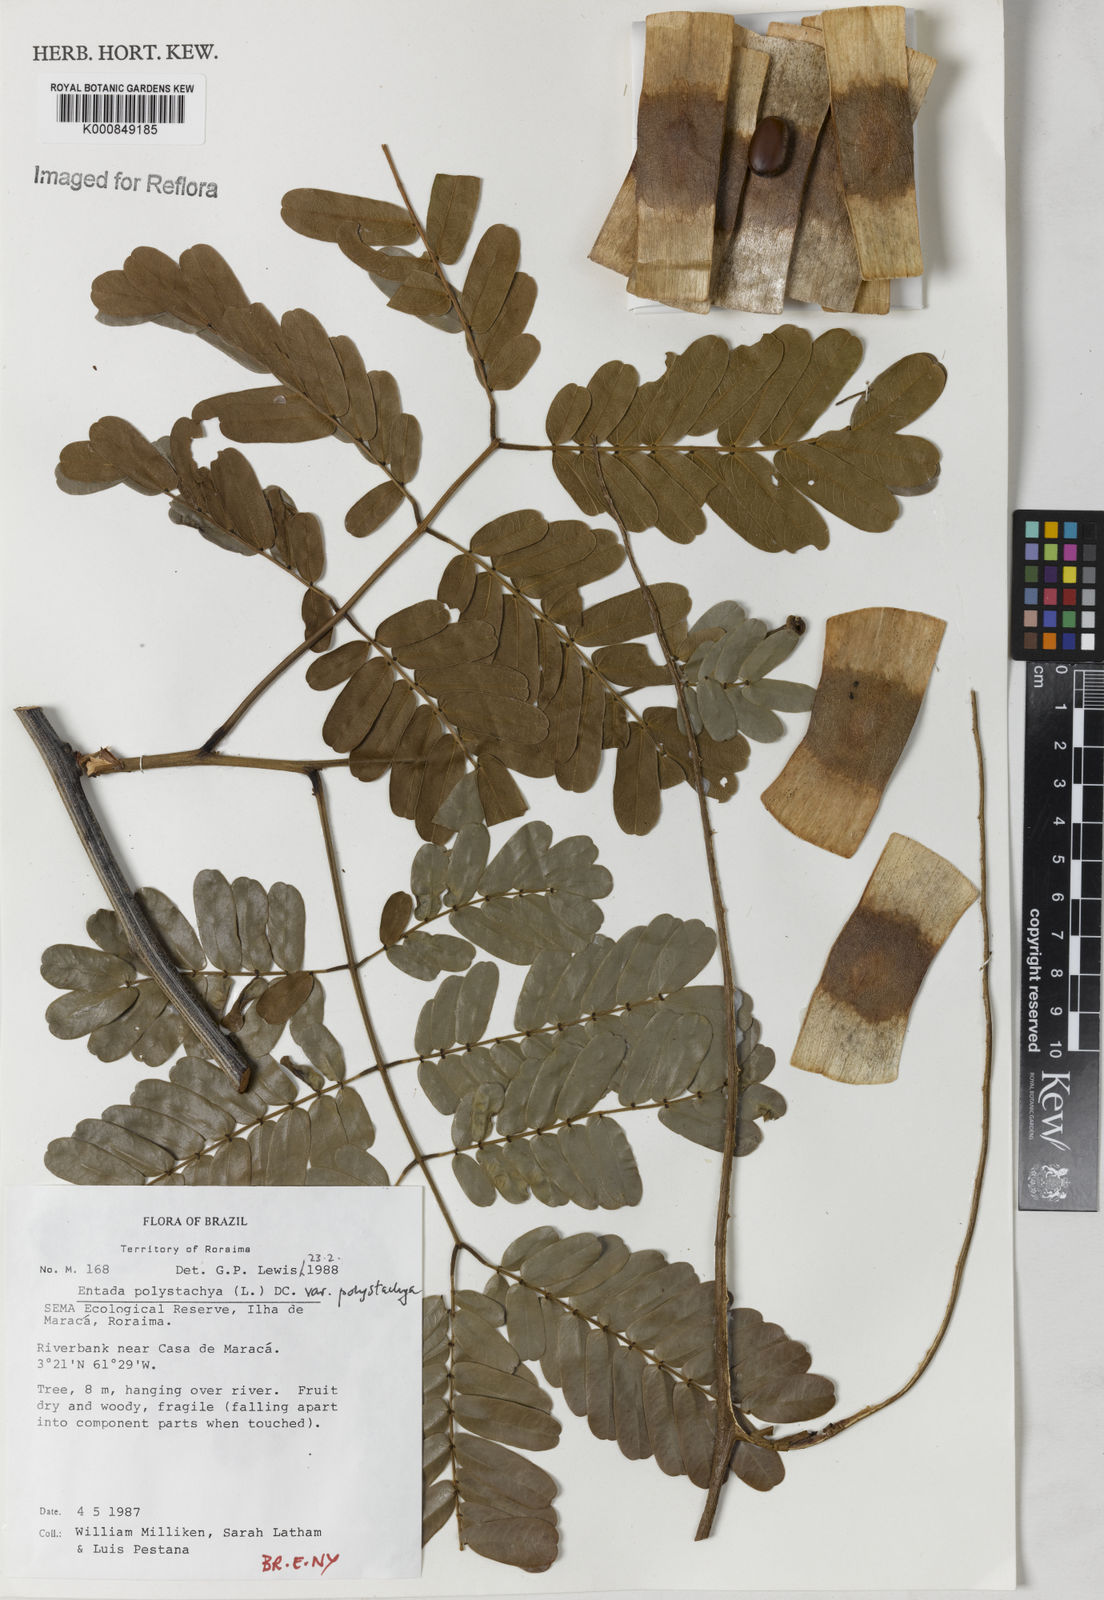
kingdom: Plantae
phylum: Tracheophyta
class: Magnoliopsida
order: Fabales
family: Fabaceae
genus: Entada
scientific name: Entada polystachya
